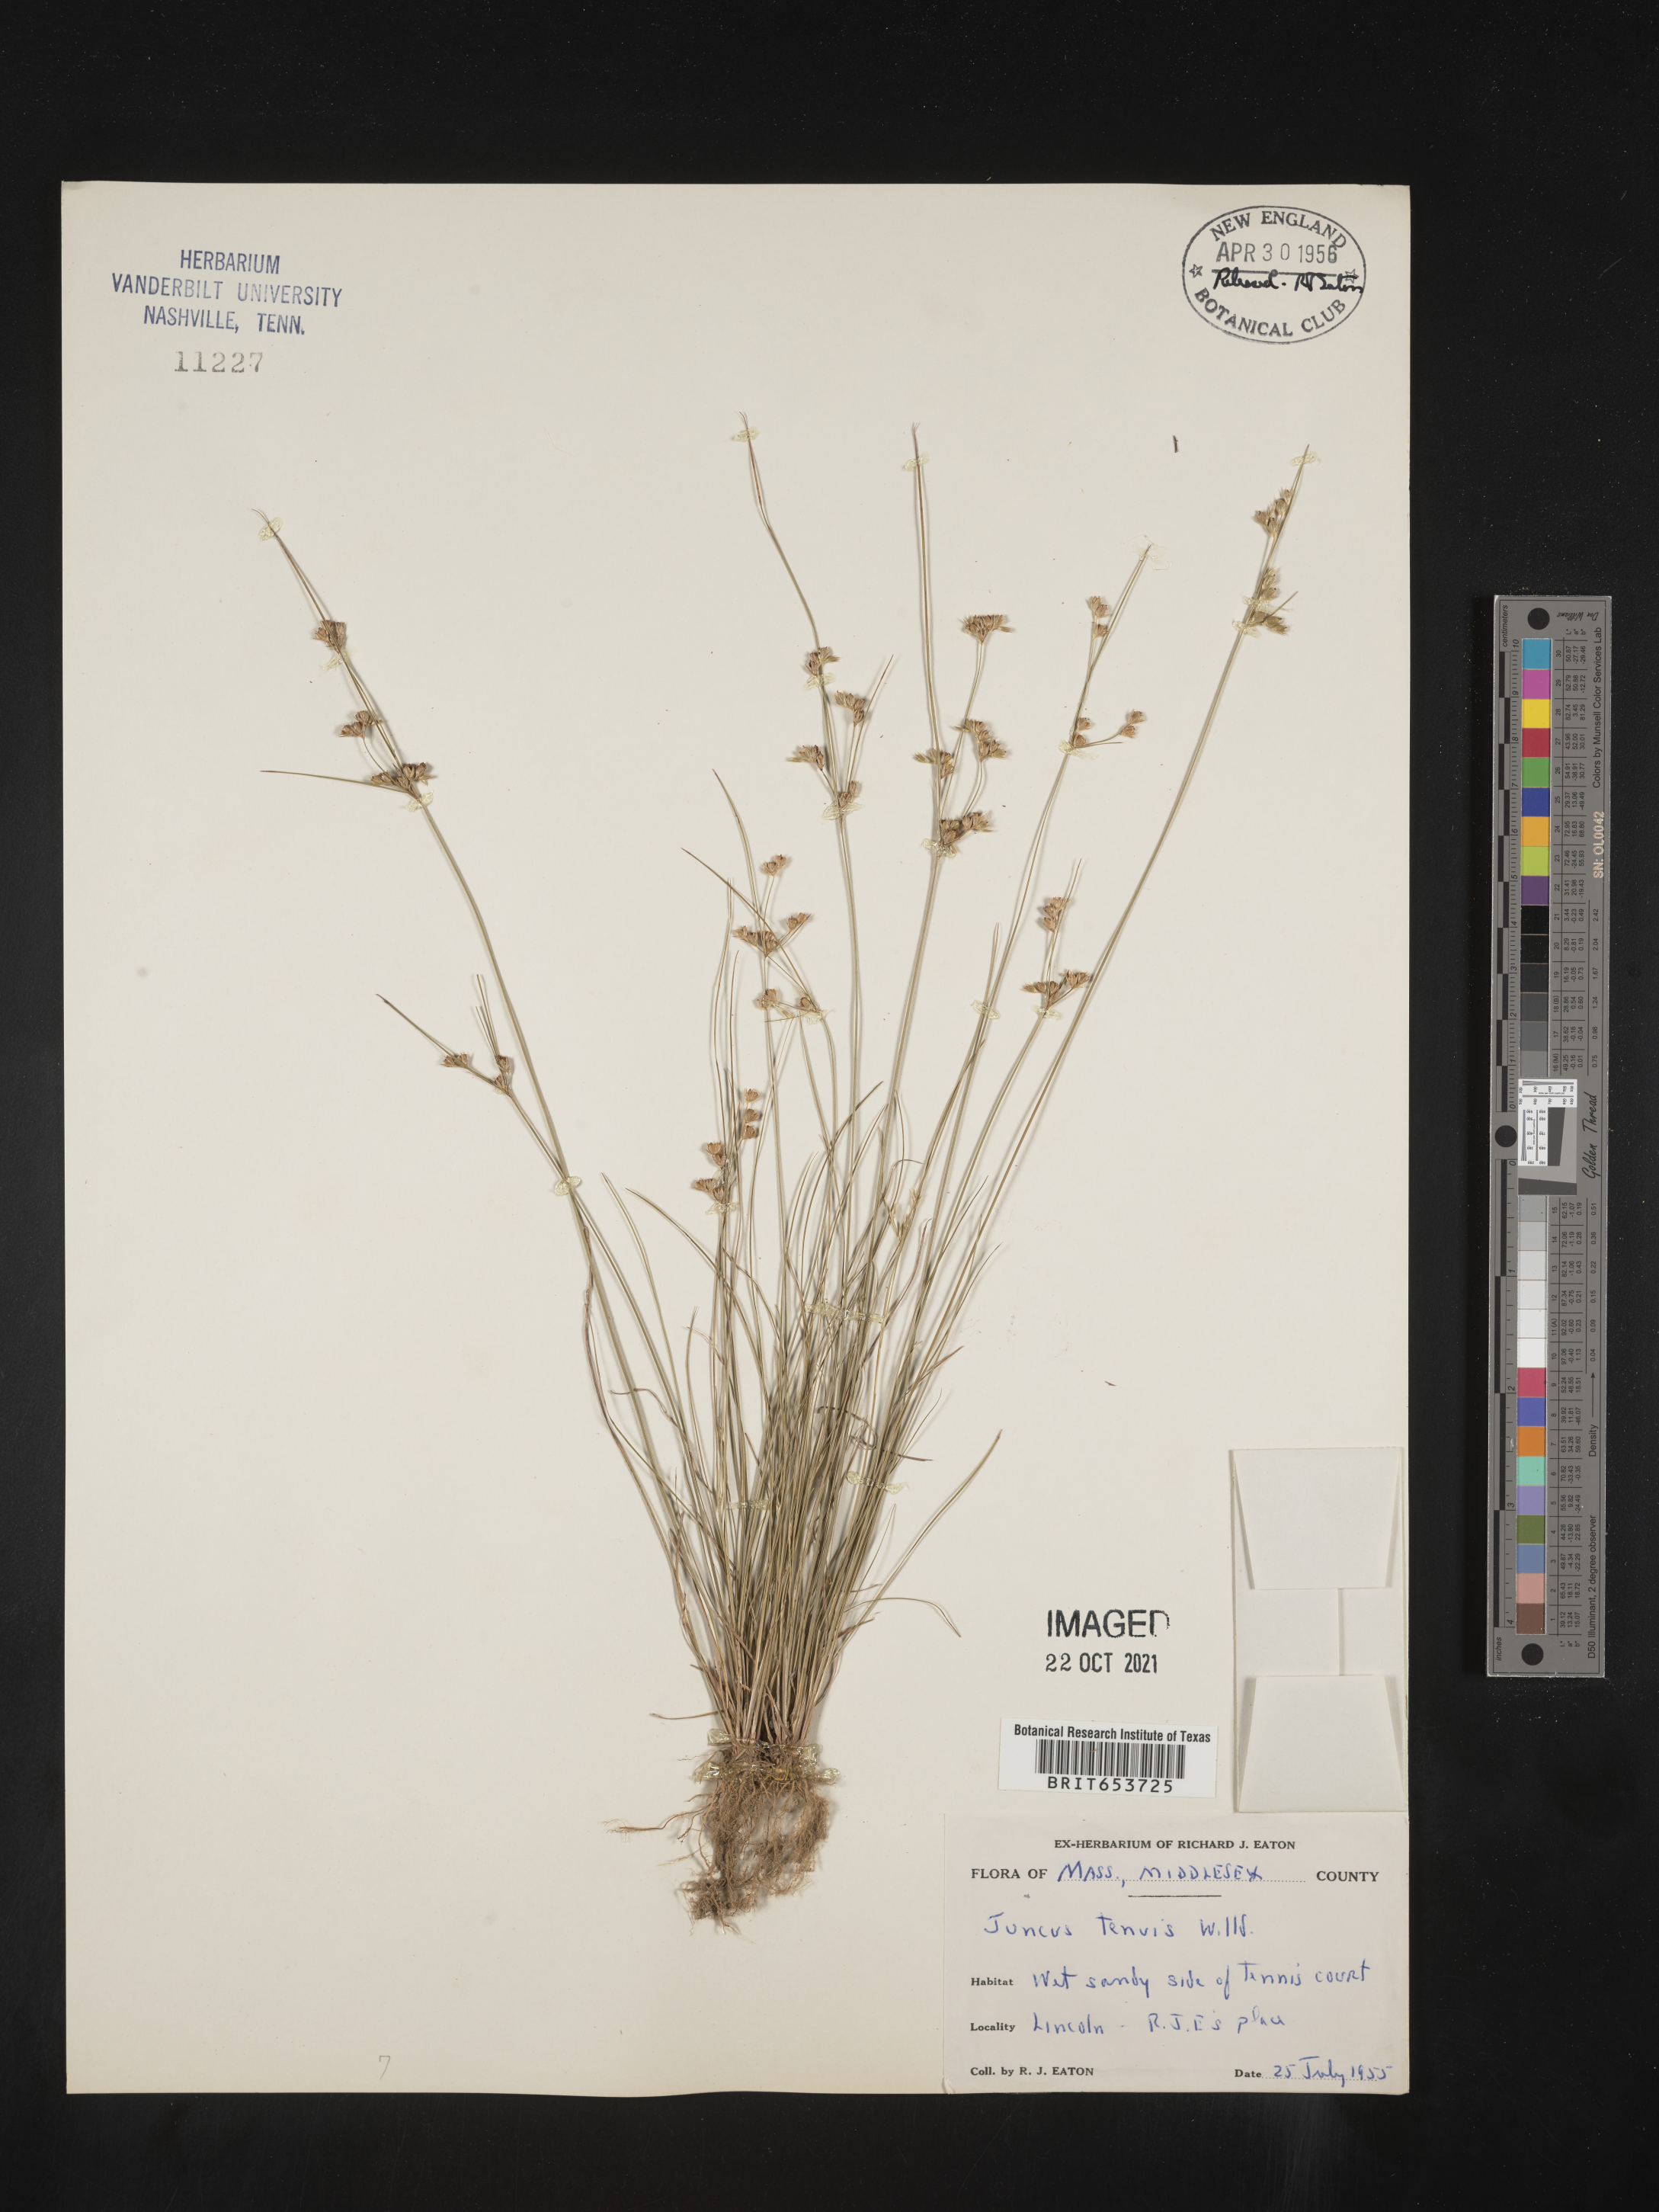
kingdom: Plantae
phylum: Tracheophyta
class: Liliopsida
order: Poales
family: Juncaceae
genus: Juncus
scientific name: Juncus tenuis
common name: Slender rush
